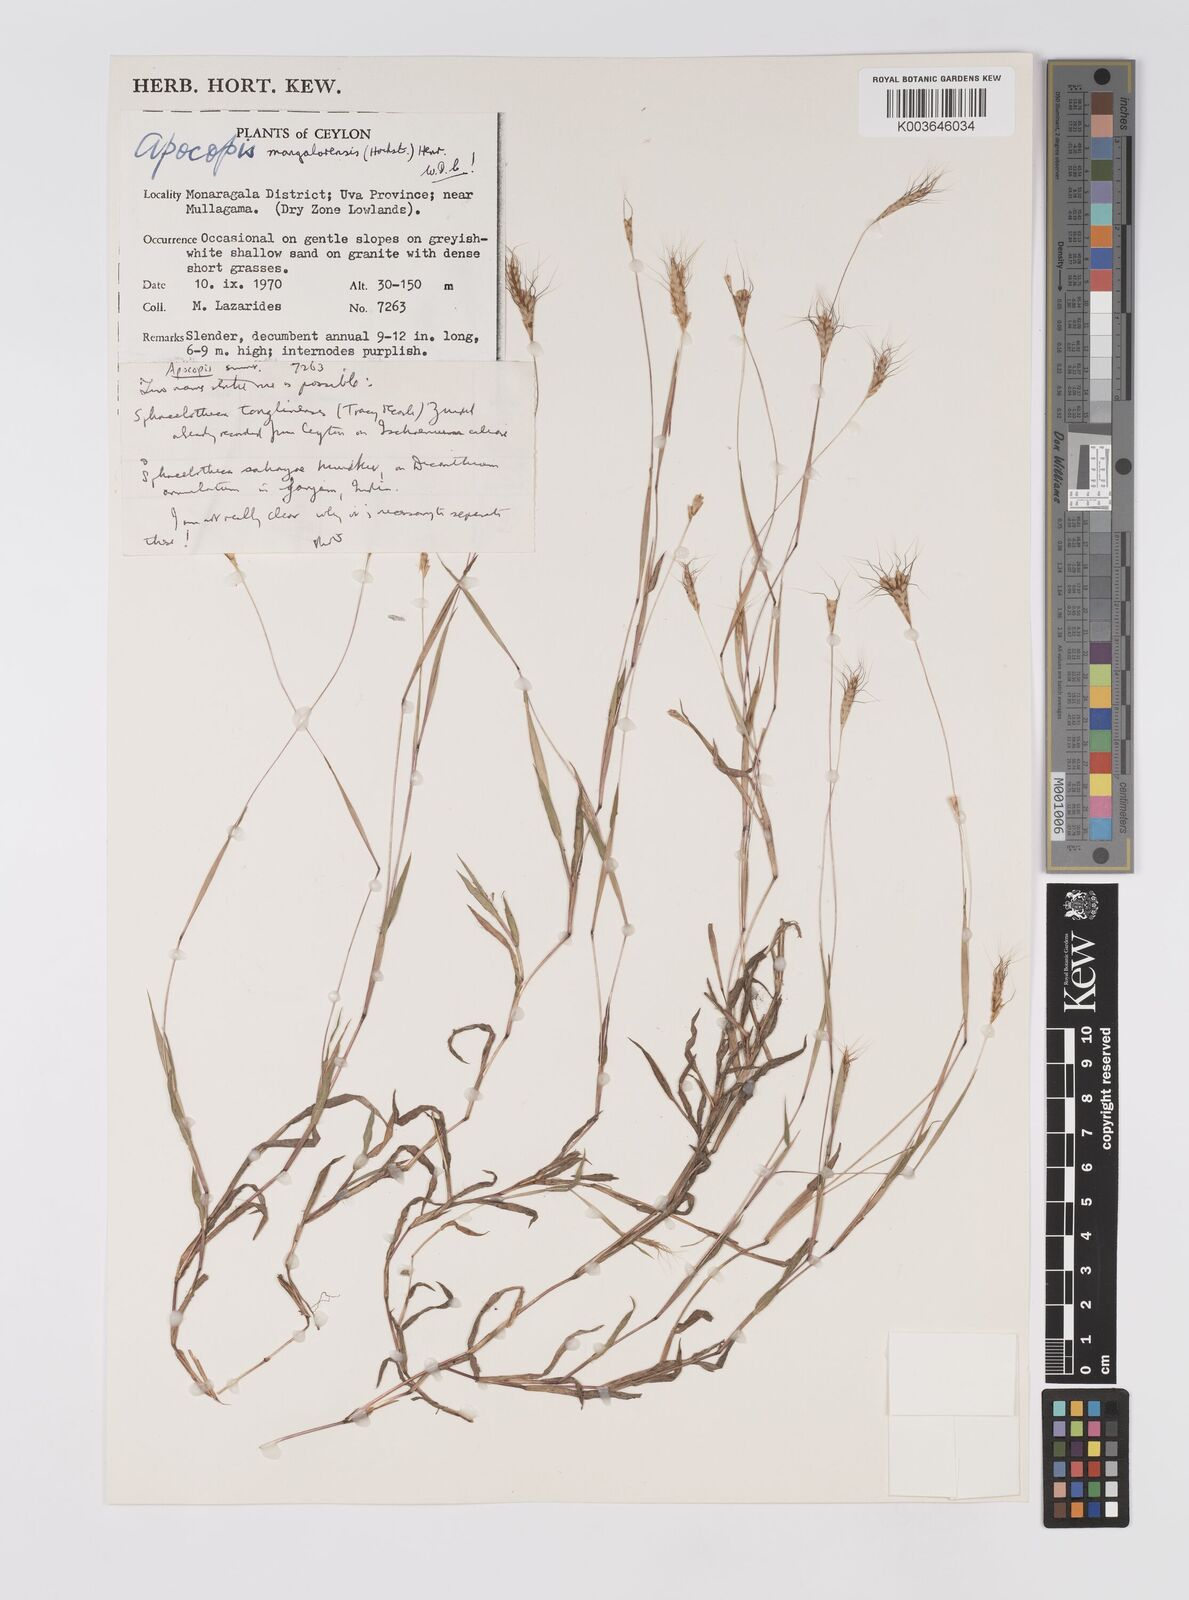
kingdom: Plantae
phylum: Tracheophyta
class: Liliopsida
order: Poales
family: Poaceae
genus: Apocopis
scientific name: Apocopis mangalorensis
